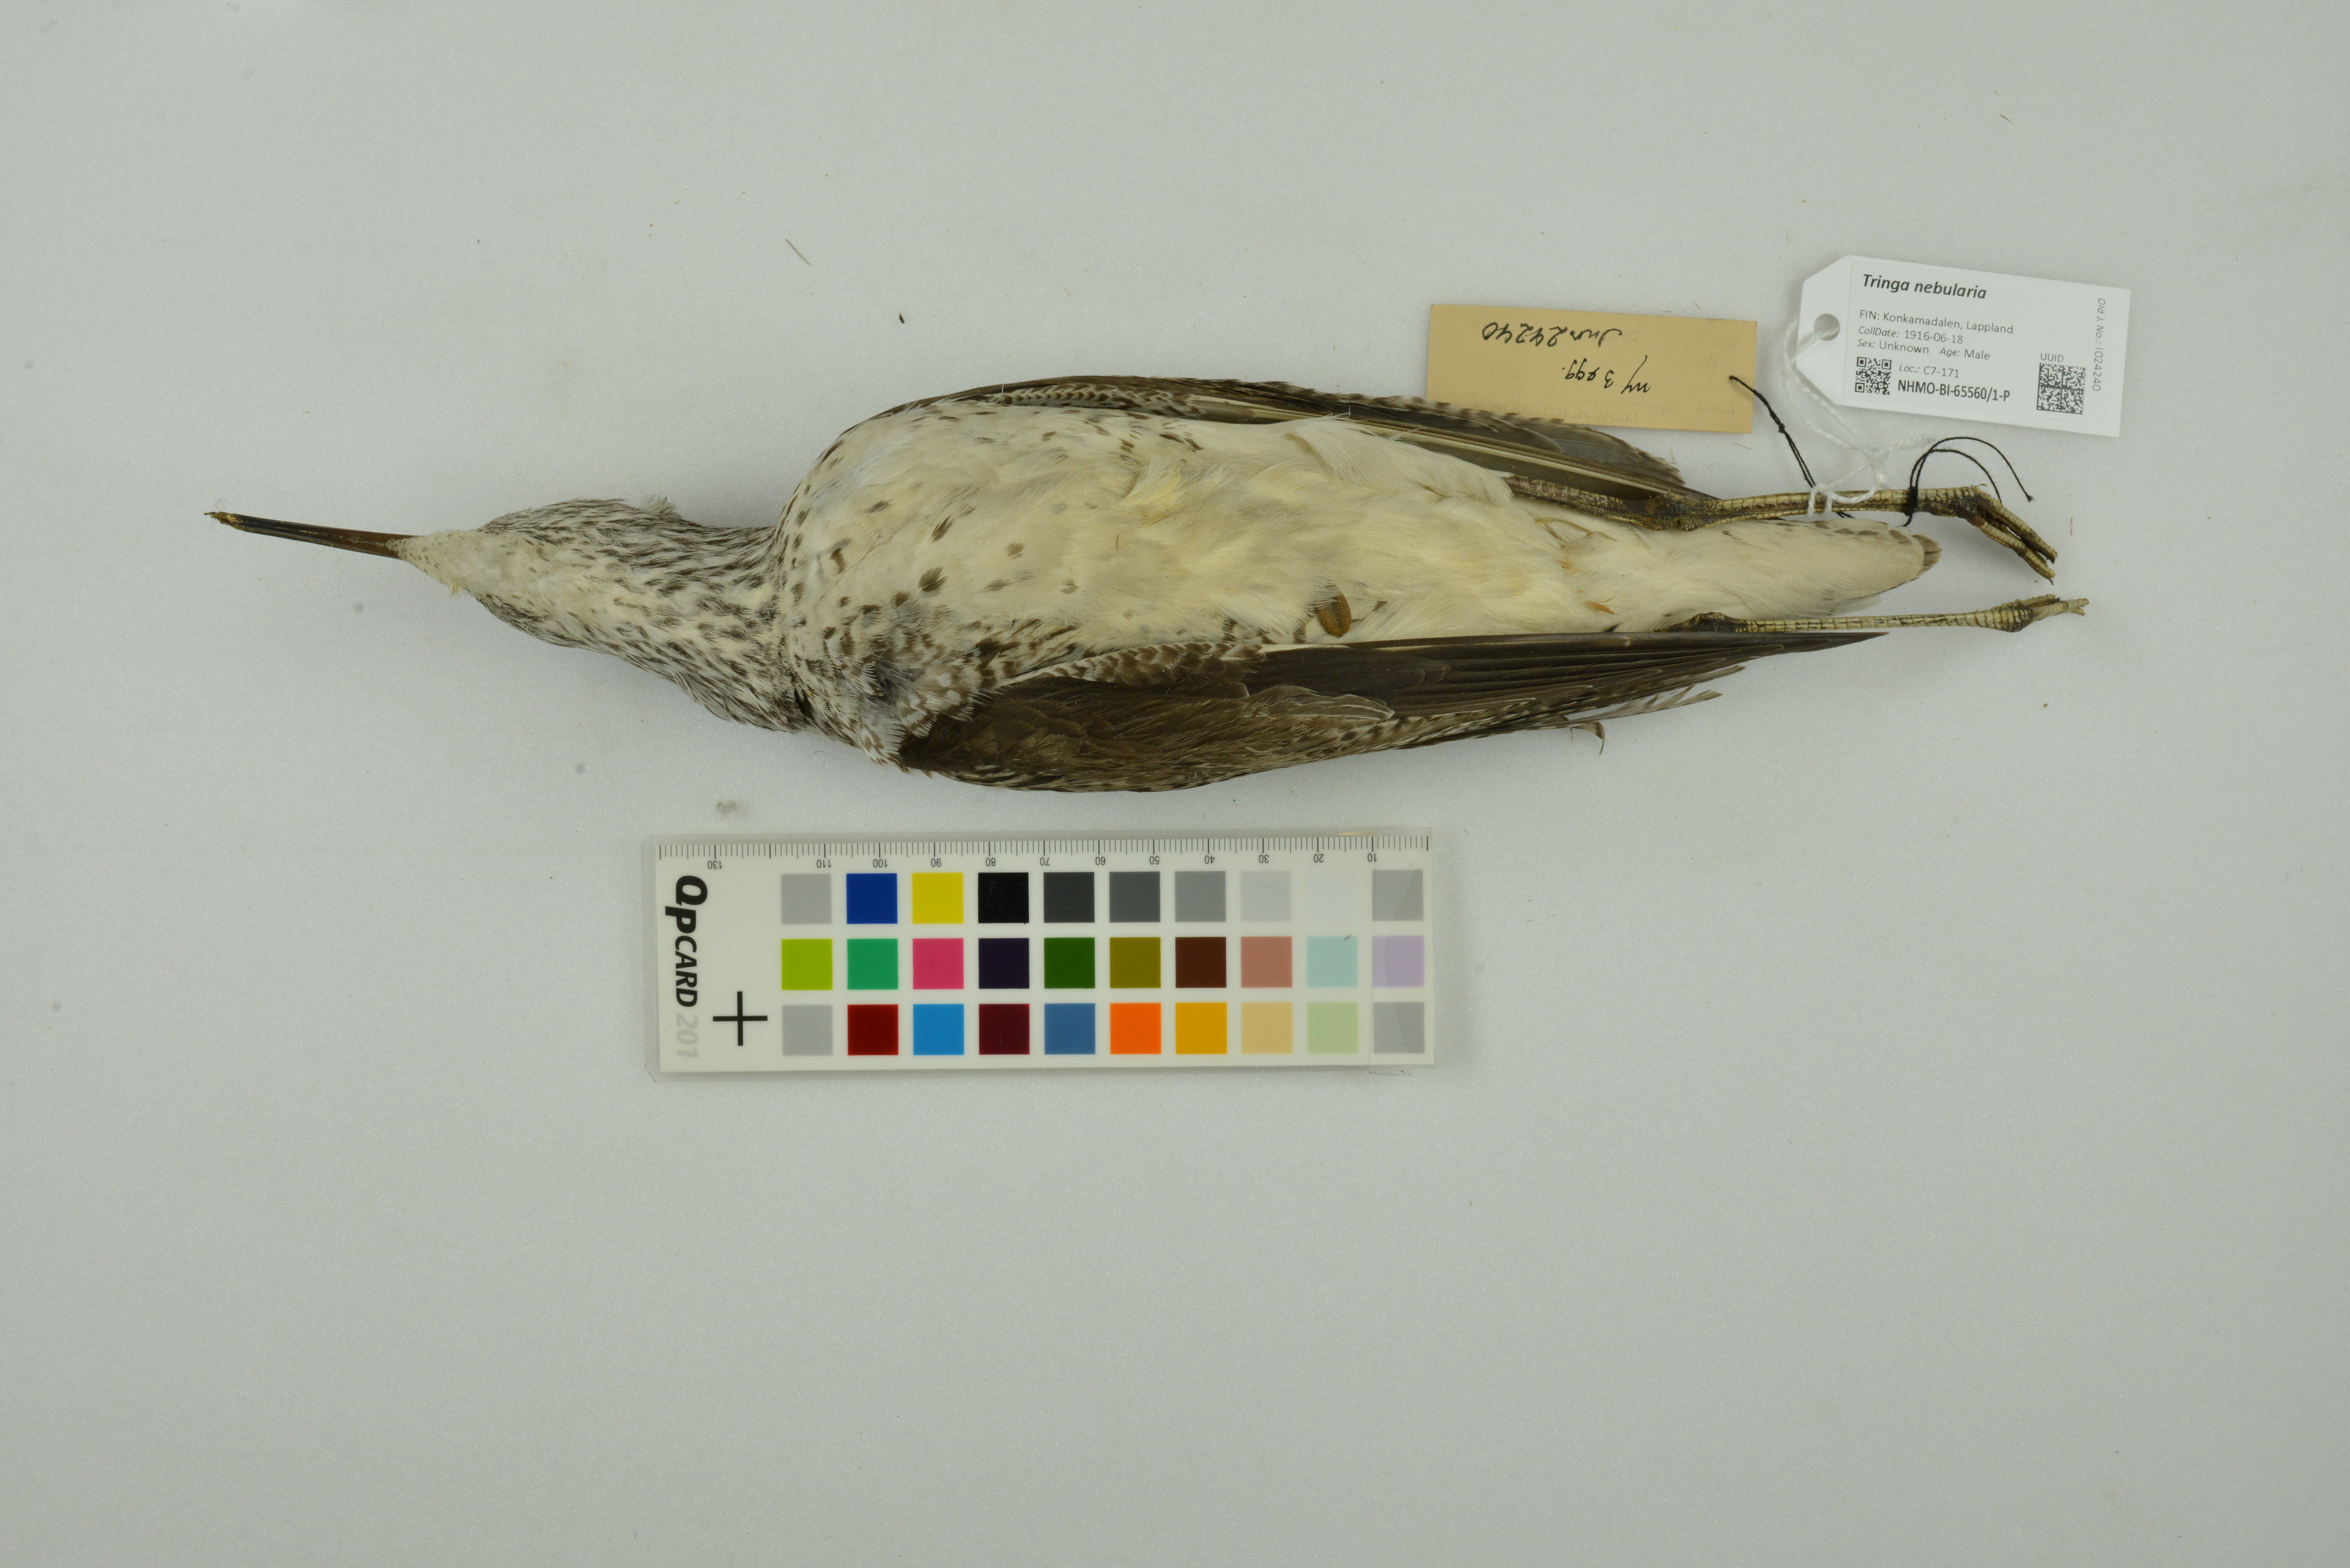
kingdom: Animalia
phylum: Chordata
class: Aves
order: Charadriiformes
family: Scolopacidae
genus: Tringa
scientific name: Tringa nebularia
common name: Common greenshank
